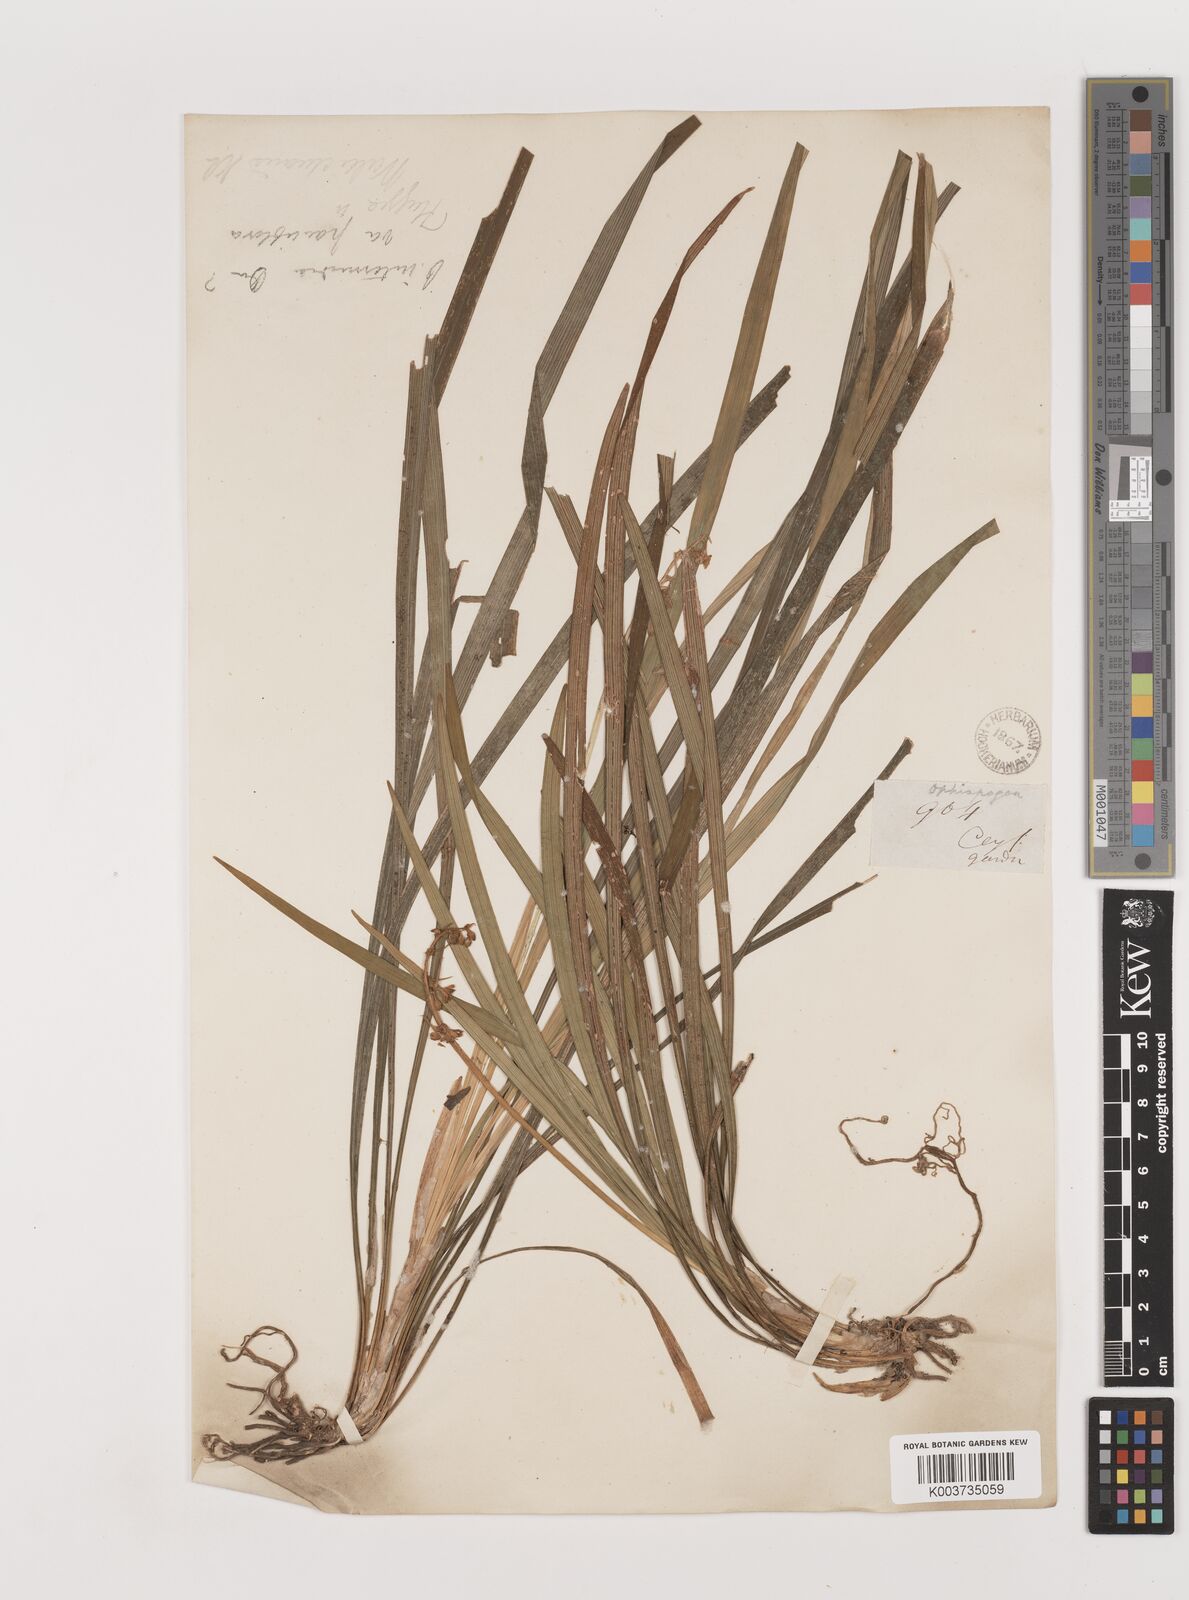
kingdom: Plantae
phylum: Tracheophyta
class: Liliopsida
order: Asparagales
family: Asparagaceae
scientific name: Asparagaceae
